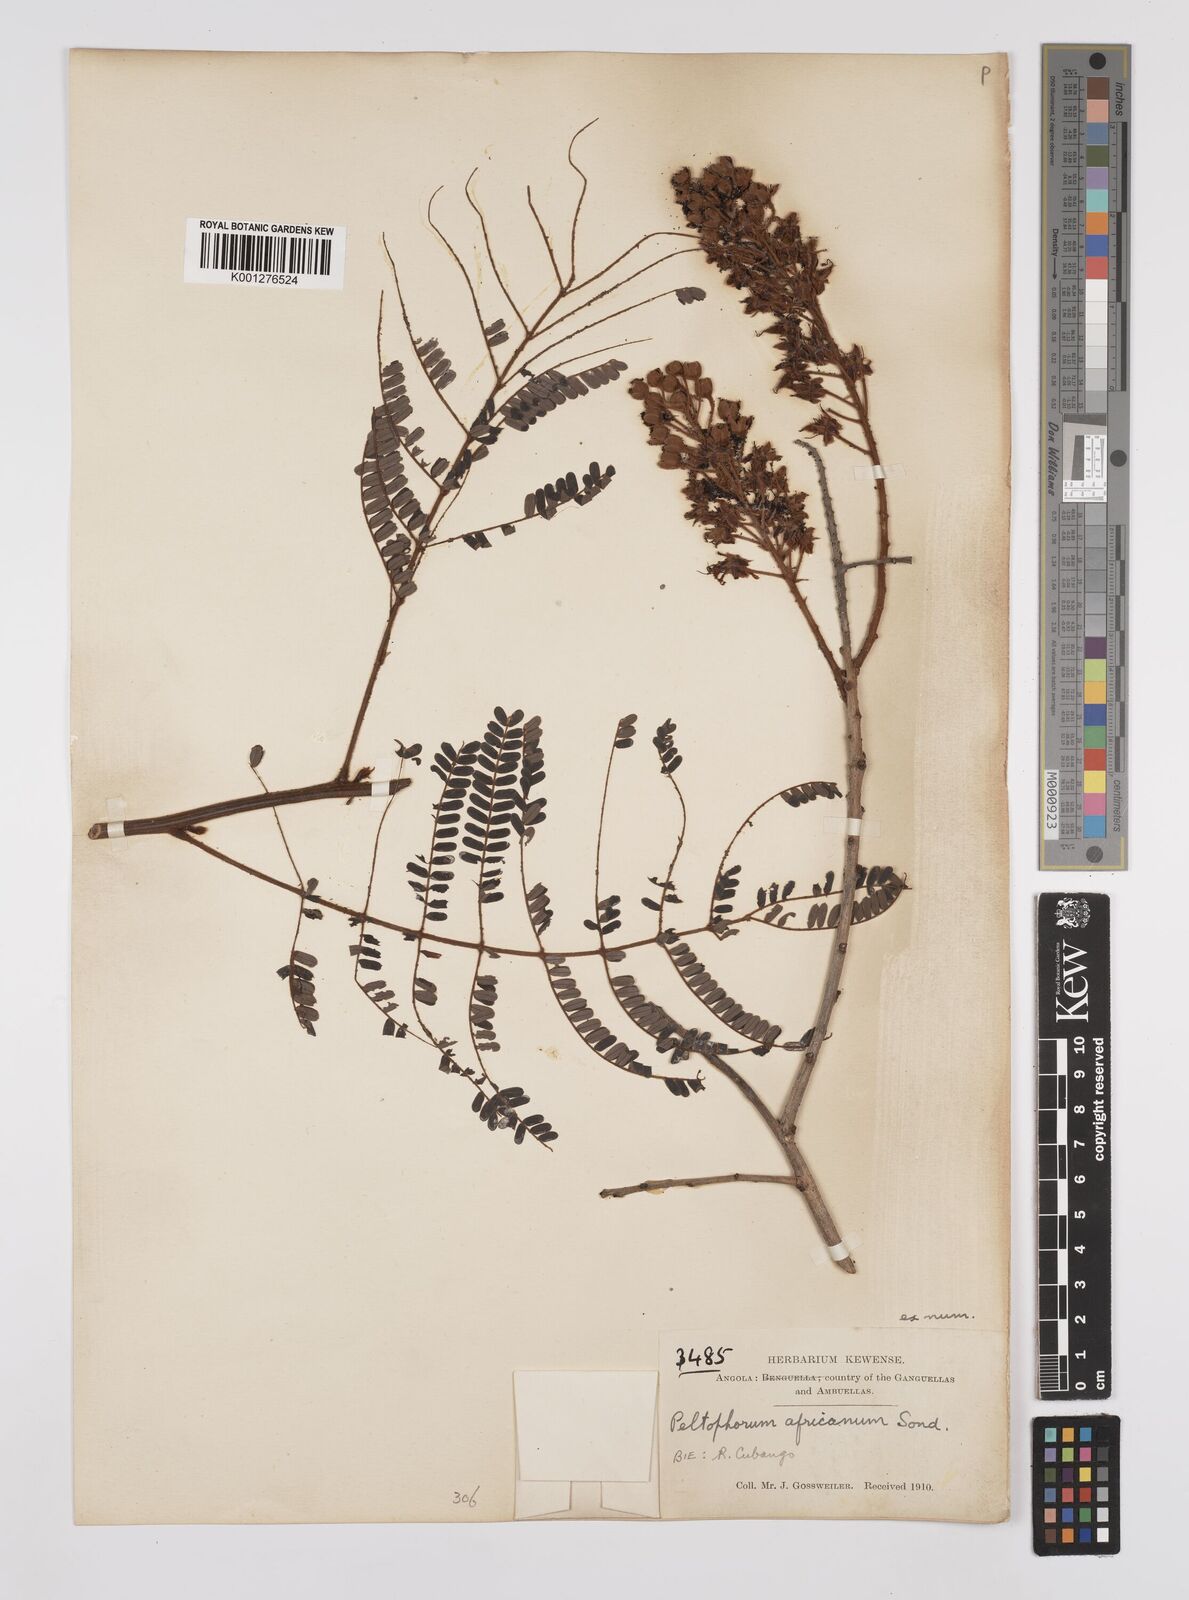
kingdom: Plantae
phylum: Tracheophyta
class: Magnoliopsida
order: Fabales
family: Fabaceae
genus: Peltophorum
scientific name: Peltophorum africanum
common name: African black wattle
